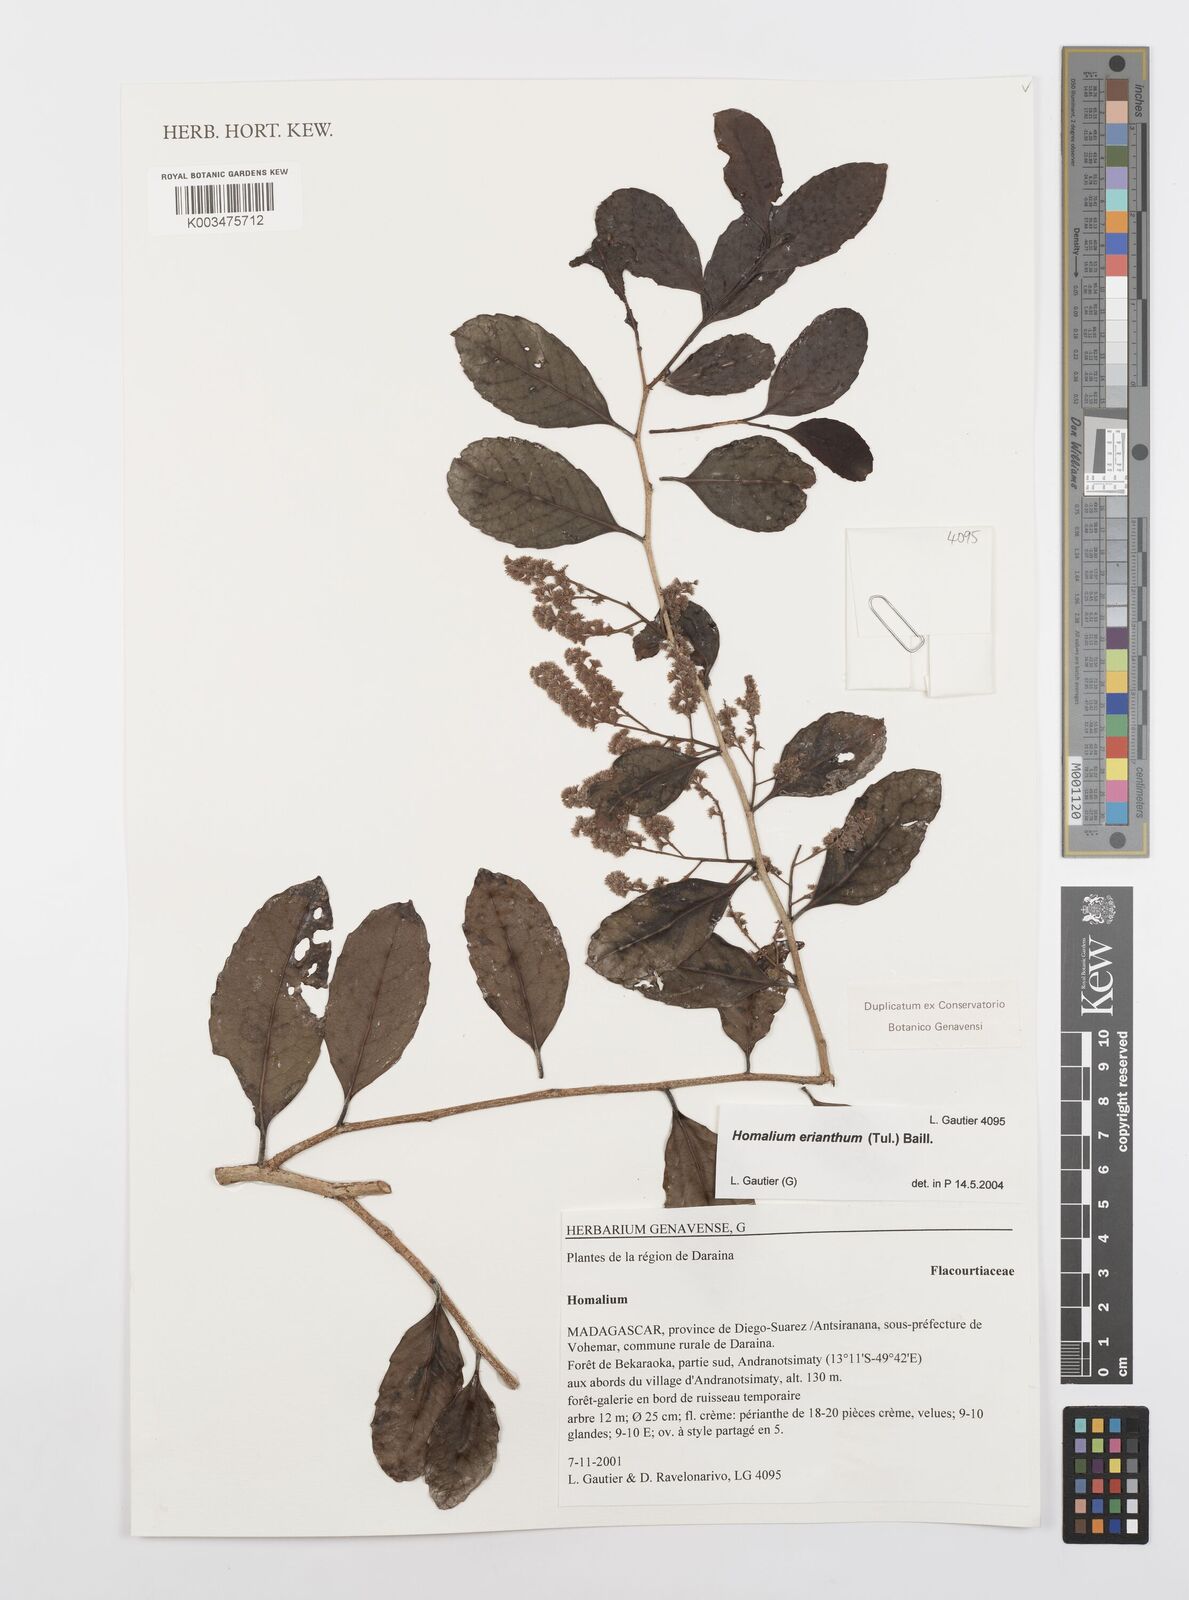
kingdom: Plantae
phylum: Tracheophyta
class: Magnoliopsida
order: Malpighiales
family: Salicaceae
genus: Homalium
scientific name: Homalium erianthum
